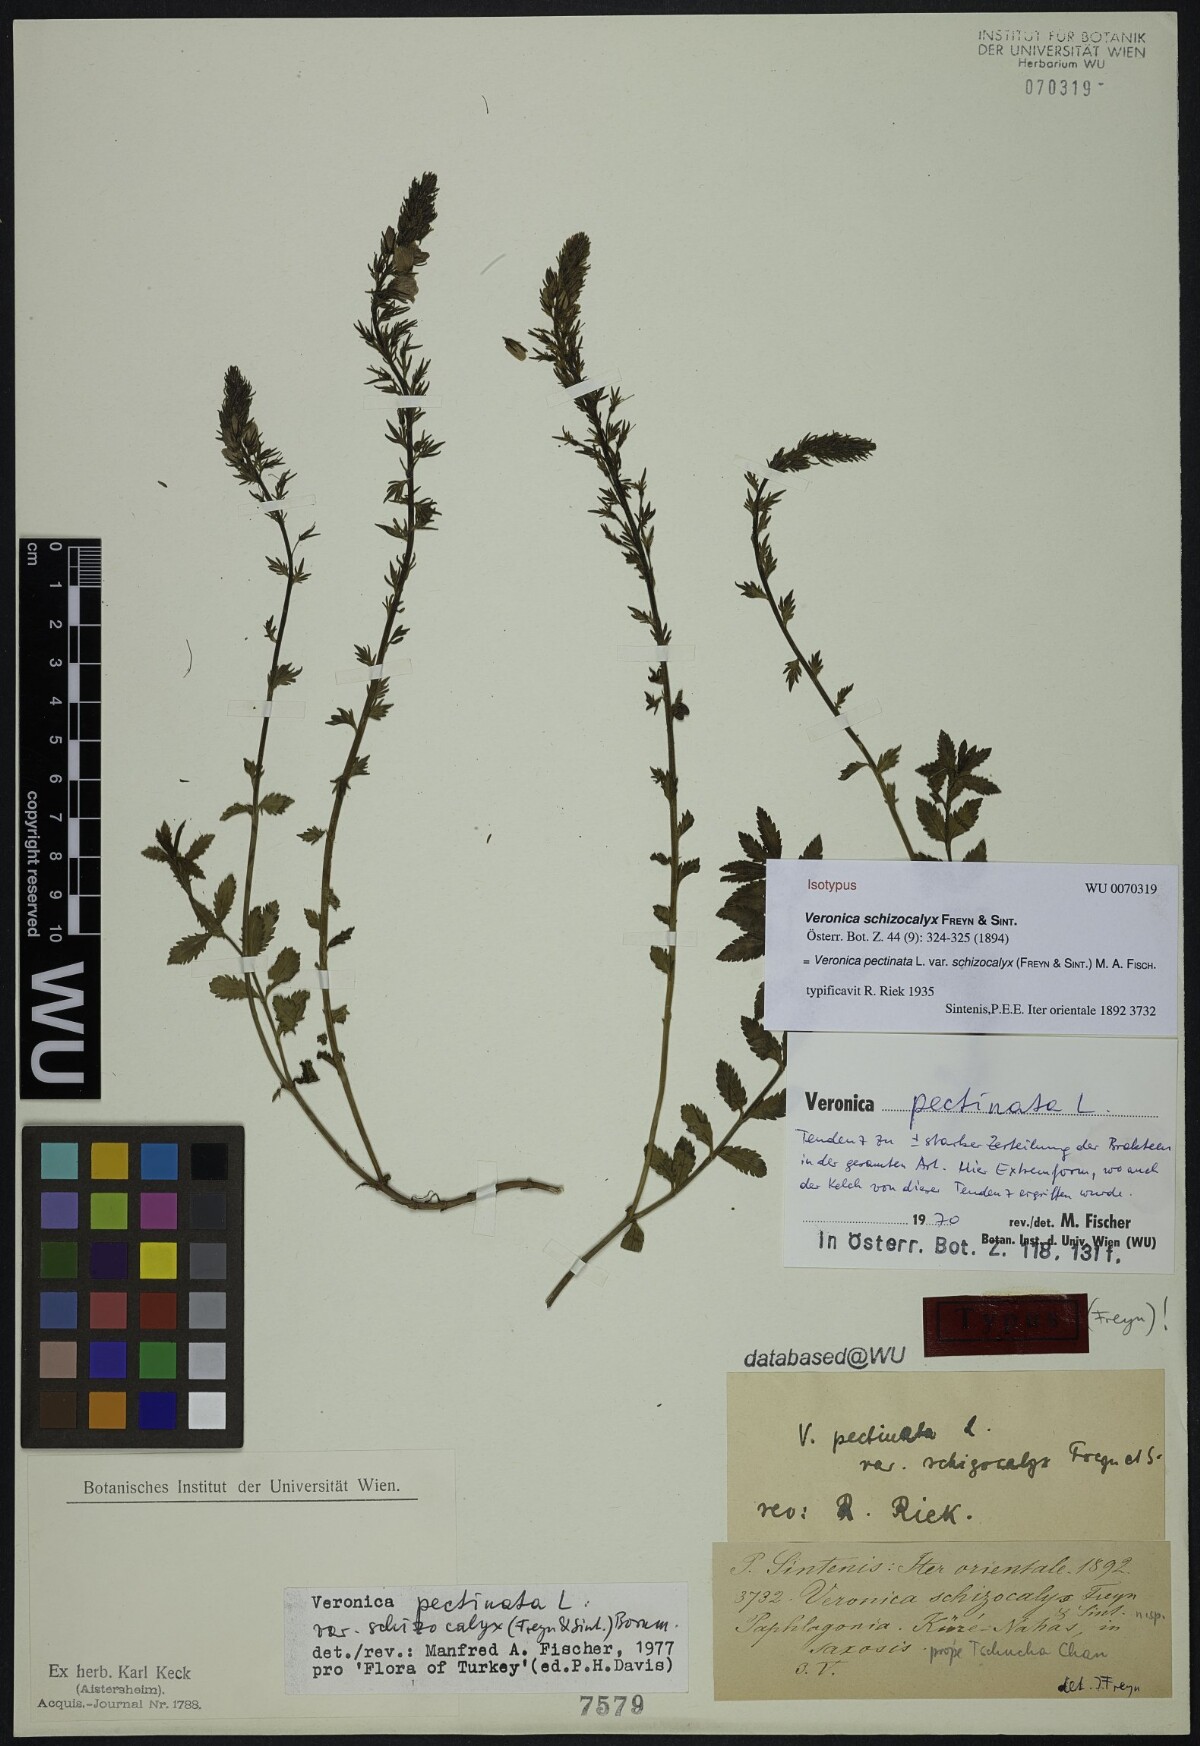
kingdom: Plantae
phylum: Tracheophyta
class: Magnoliopsida
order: Lamiales
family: Plantaginaceae
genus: Veronica
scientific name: Veronica pectinata
